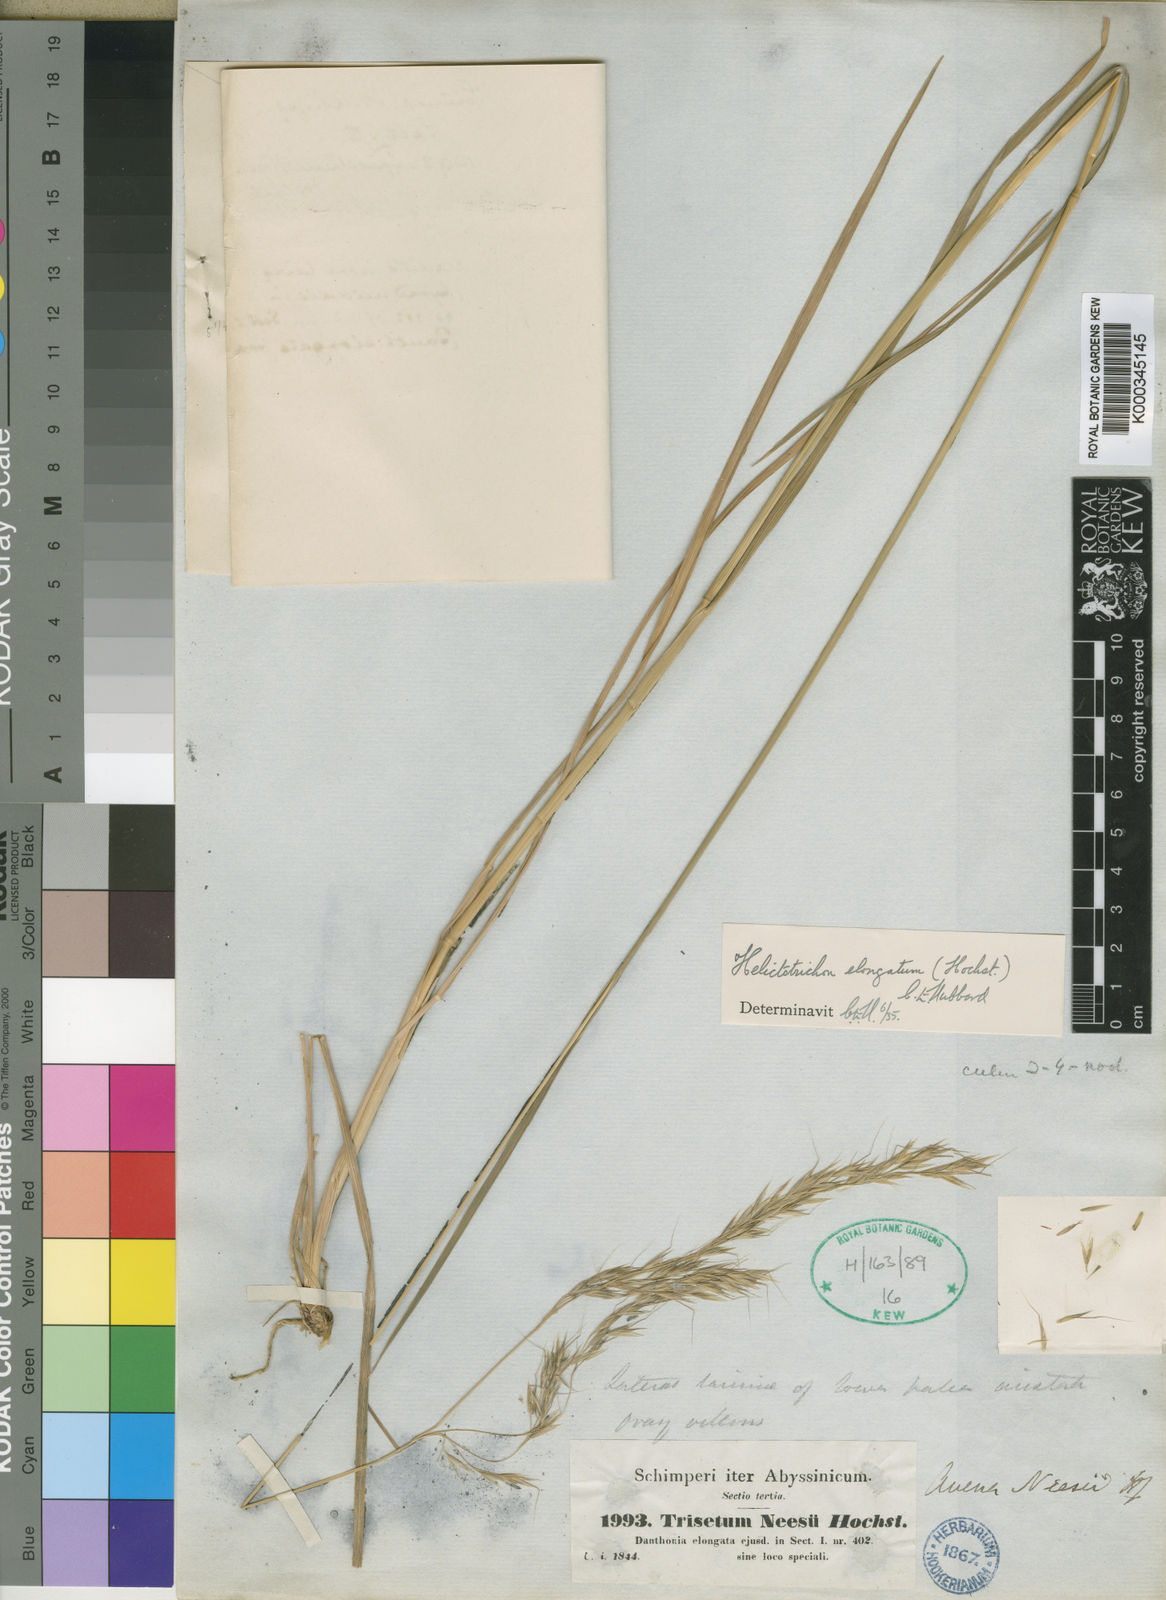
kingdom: Plantae
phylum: Tracheophyta
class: Liliopsida
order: Poales
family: Poaceae
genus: Trisetopsis
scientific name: Trisetopsis elongata
